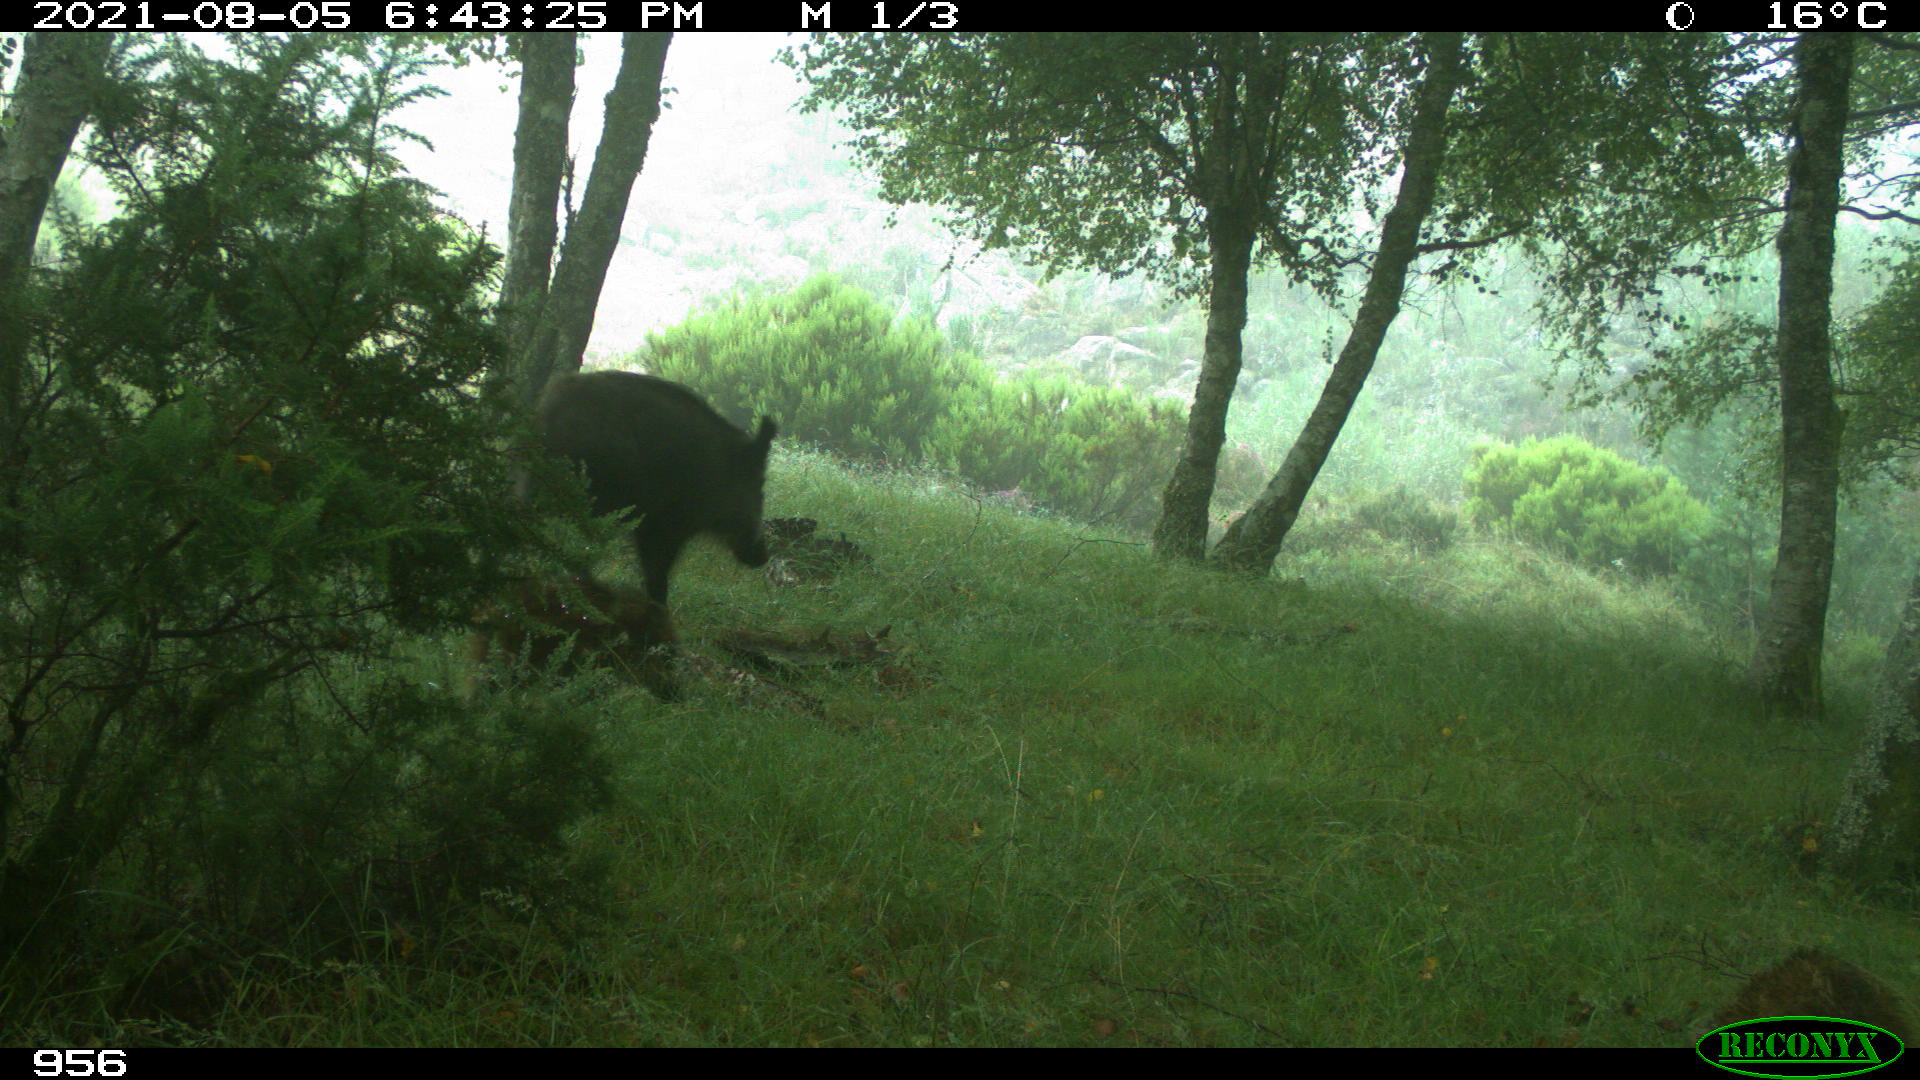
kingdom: Animalia
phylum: Chordata
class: Mammalia
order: Artiodactyla
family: Suidae
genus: Sus
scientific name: Sus scrofa
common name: Wild boar
